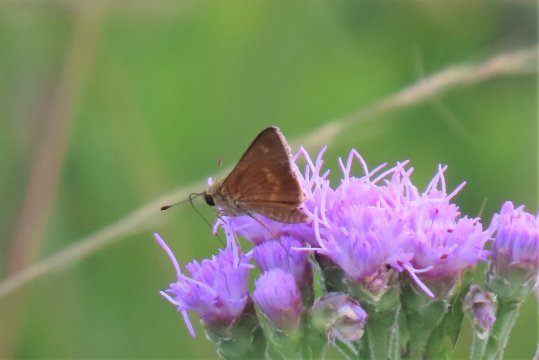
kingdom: Animalia
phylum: Arthropoda
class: Insecta
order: Lepidoptera
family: Hesperiidae
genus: Wallengrenia
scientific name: Wallengrenia otho
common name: Southern Broken-Dash
